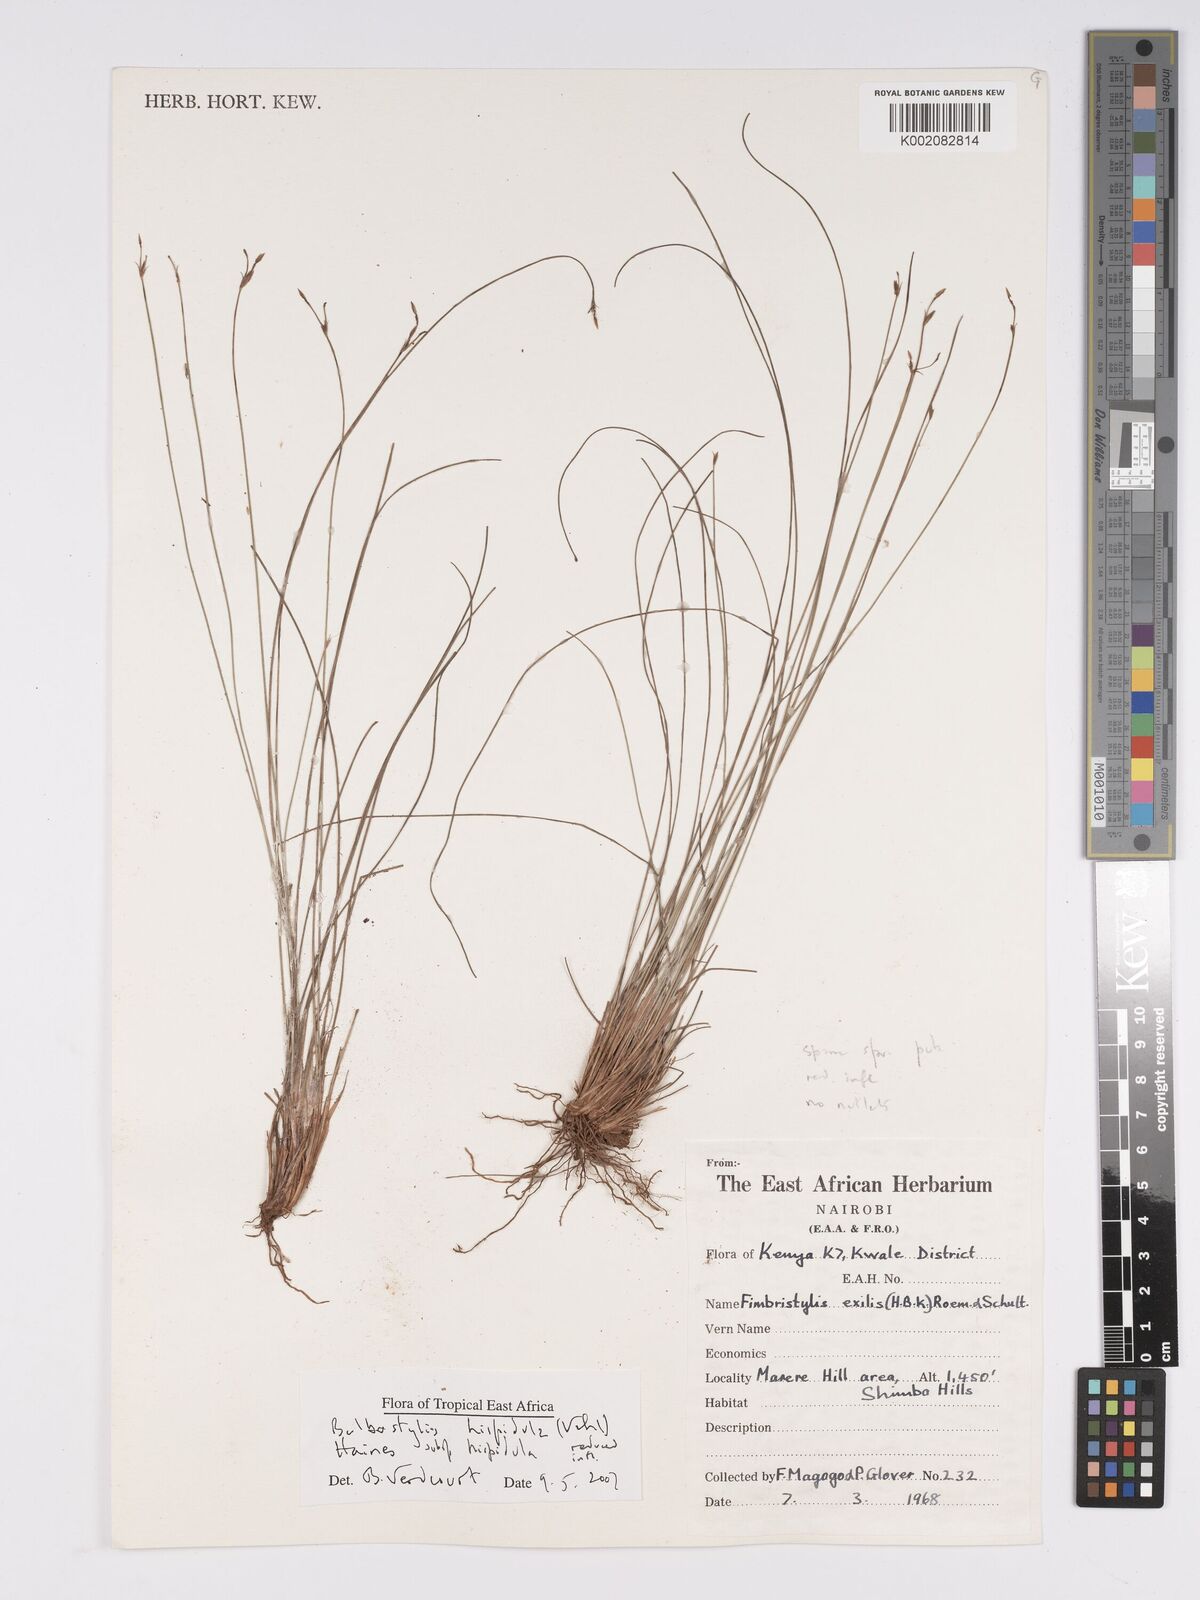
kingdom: Plantae
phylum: Tracheophyta
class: Liliopsida
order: Poales
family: Cyperaceae
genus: Bulbostylis
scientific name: Bulbostylis hispidula
